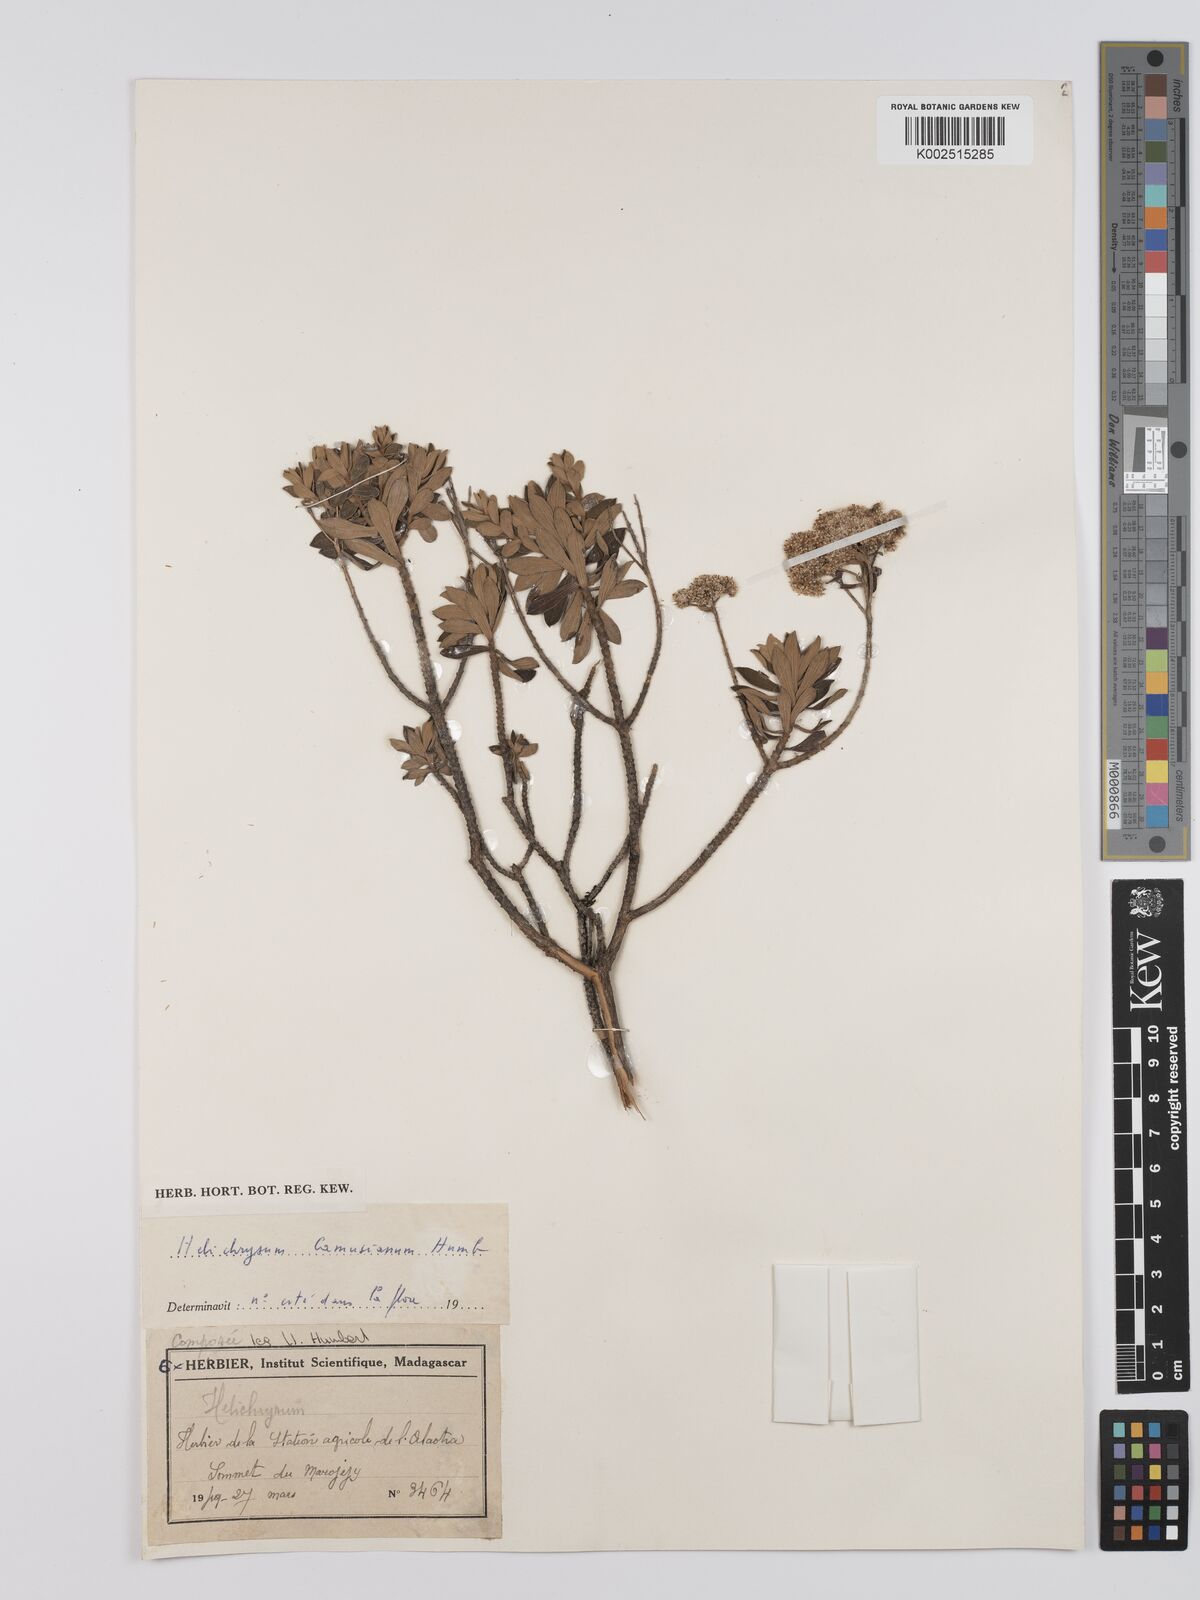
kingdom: Plantae
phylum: Tracheophyta
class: Magnoliopsida
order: Asterales
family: Asteraceae
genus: Helichrysum
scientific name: Helichrysum camusianum
